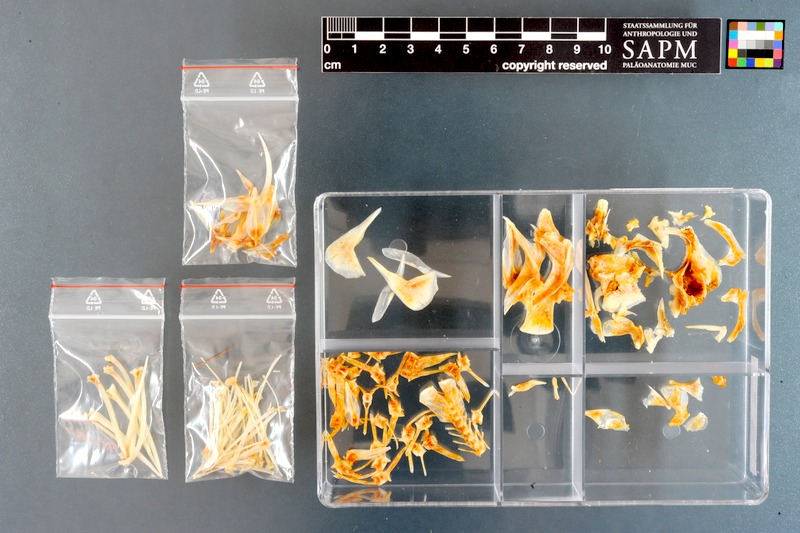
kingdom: Animalia
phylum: Chordata
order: Scorpaeniformes
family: Congiopodidae
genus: Congiopodus
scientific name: Congiopodus spinifer
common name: Spinenose horsefish
